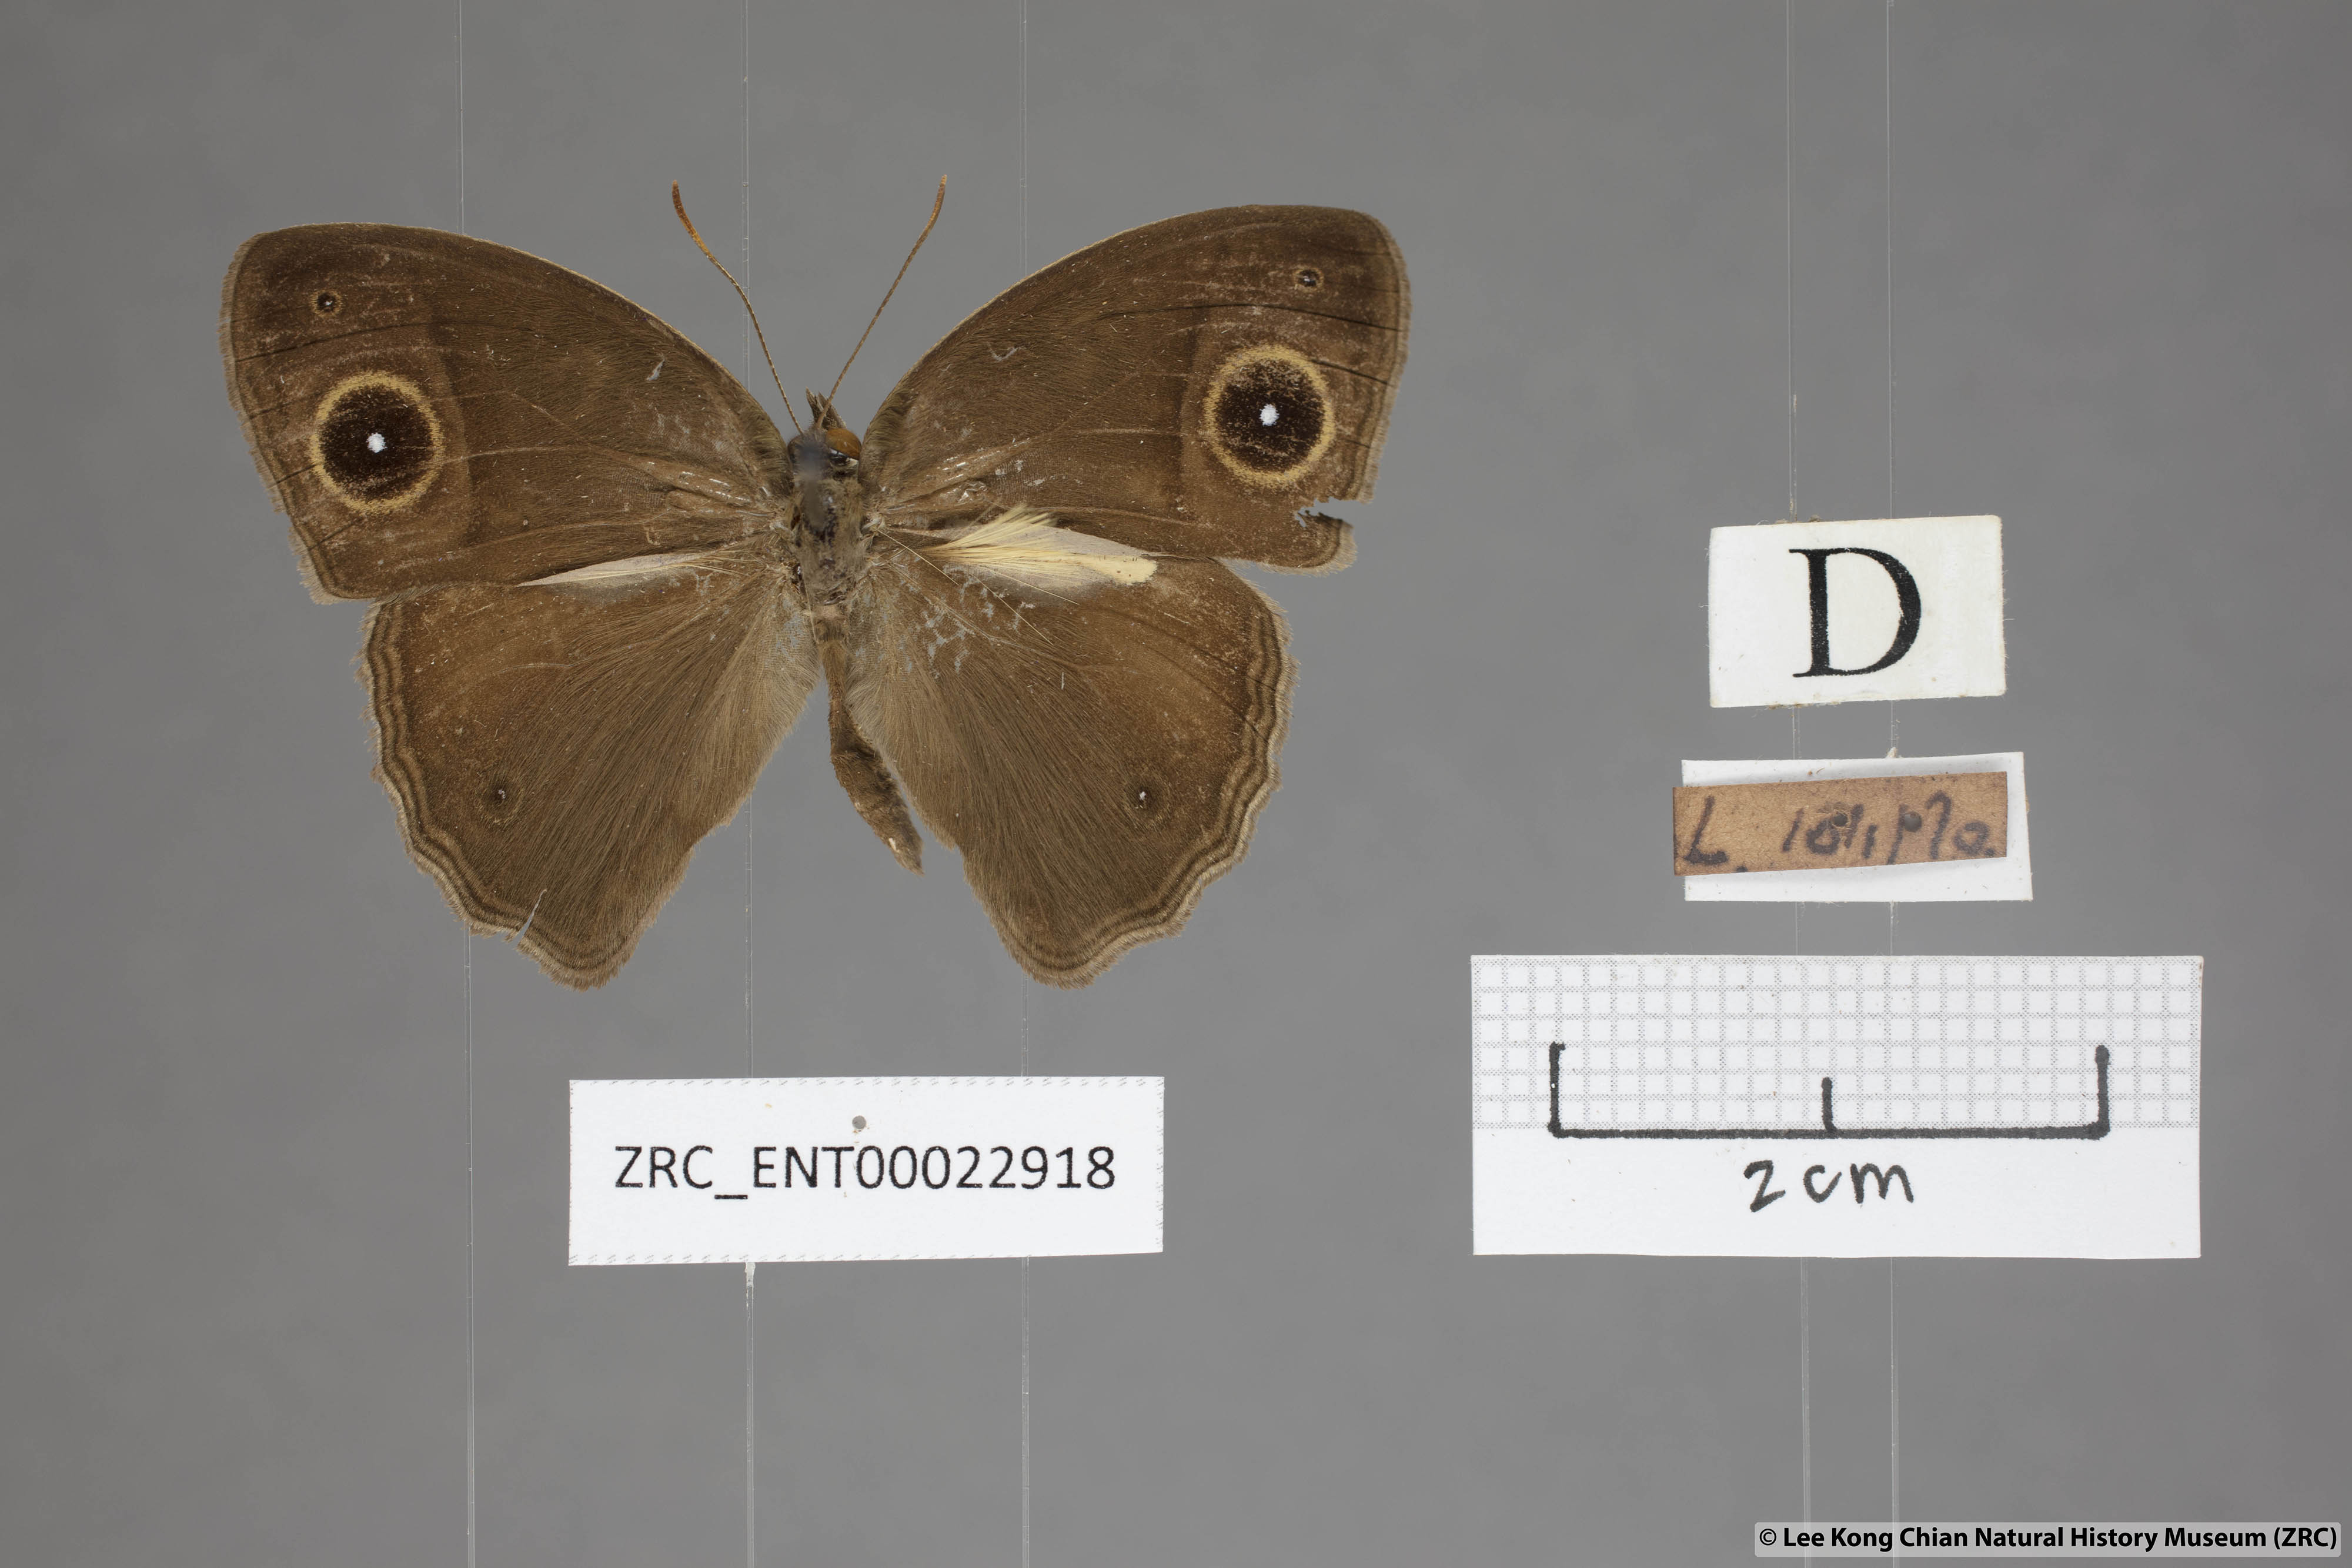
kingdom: Animalia
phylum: Arthropoda
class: Insecta
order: Lepidoptera
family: Nymphalidae
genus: Mycalesis
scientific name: Mycalesis horsfieldii
